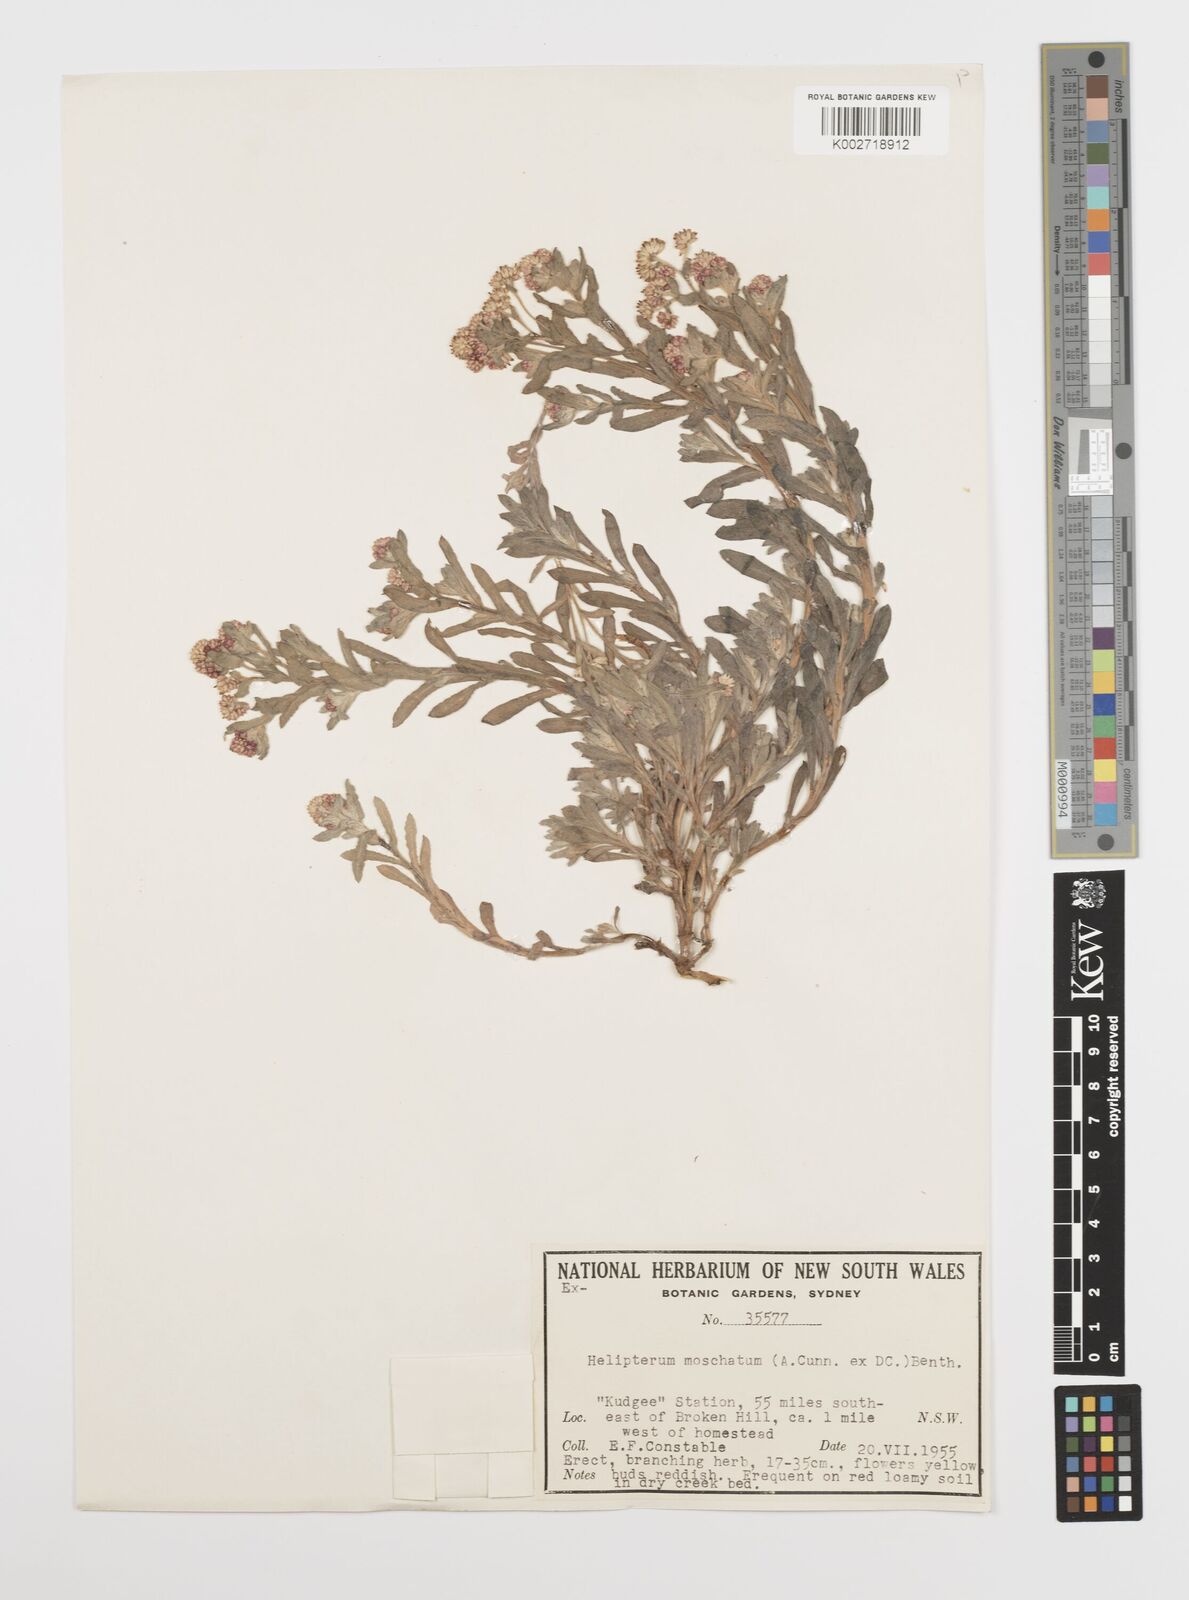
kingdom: Plantae
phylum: Tracheophyta
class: Magnoliopsida
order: Asterales
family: Asteraceae
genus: Rhodanthe
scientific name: Rhodanthe moschata
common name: Musk sunray
